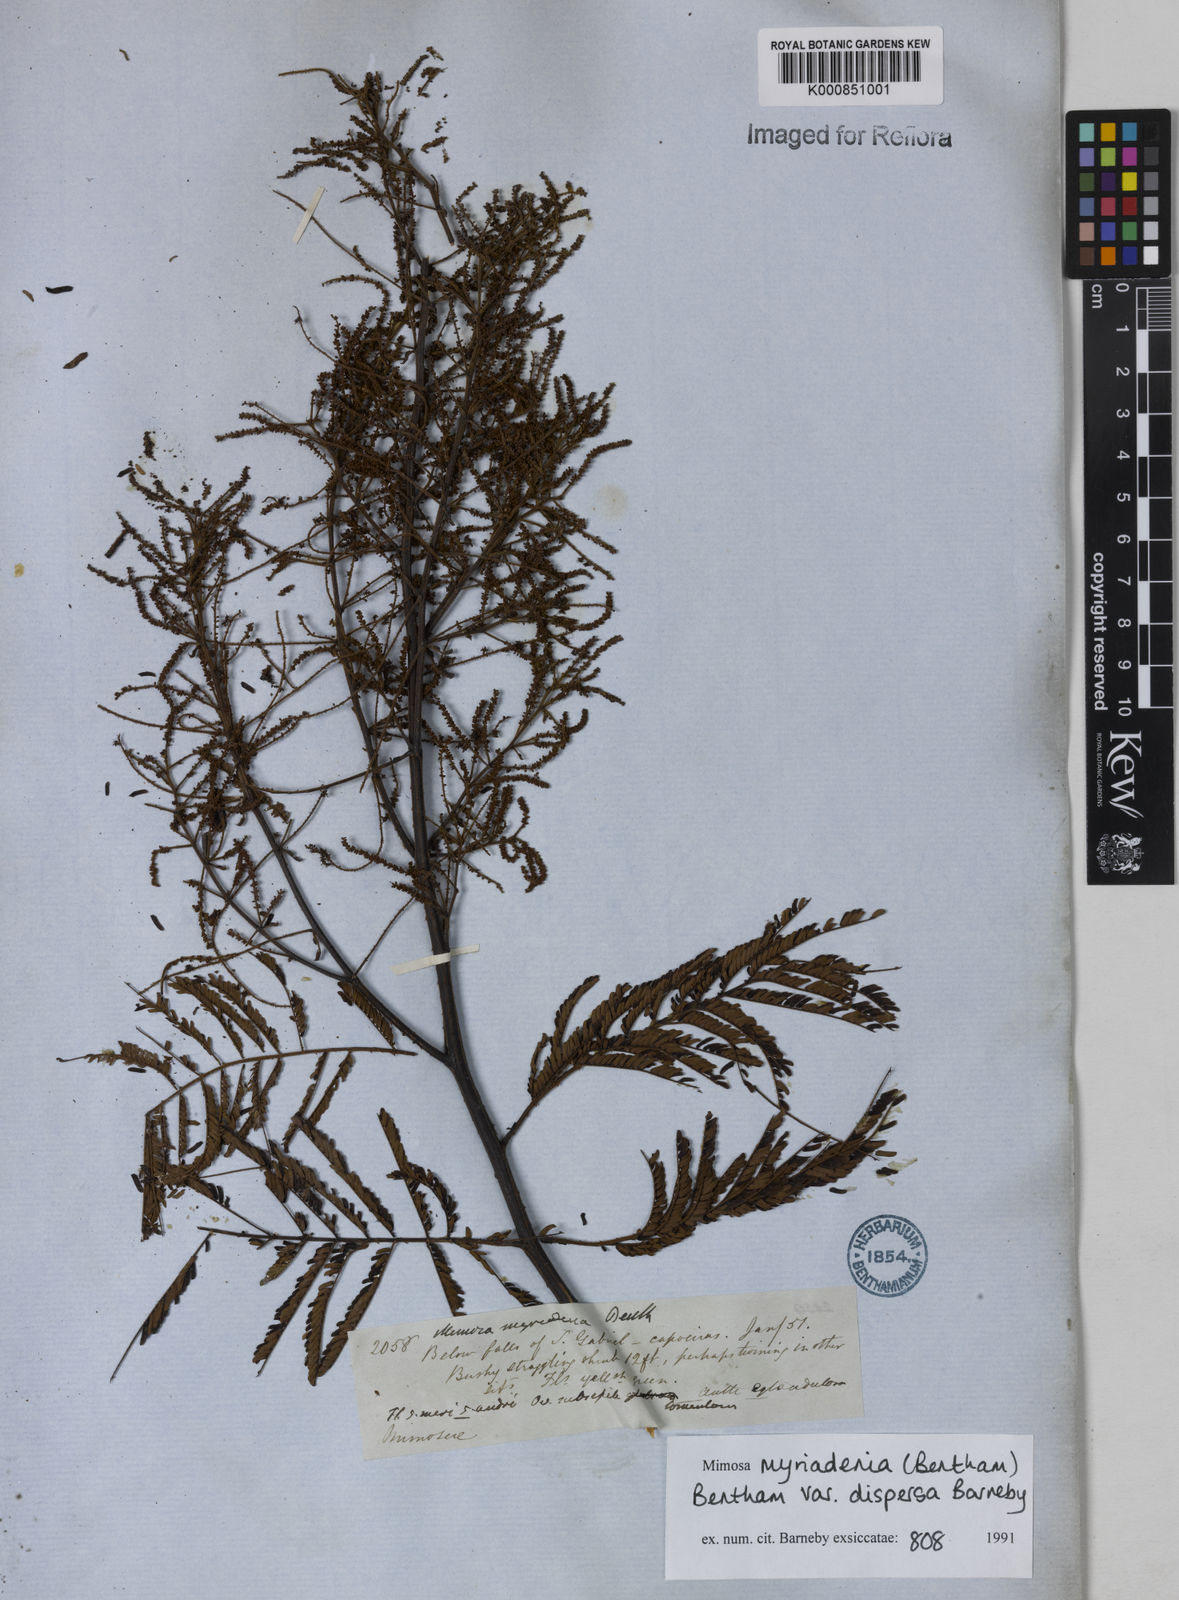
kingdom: Plantae
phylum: Tracheophyta
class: Magnoliopsida
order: Fabales
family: Fabaceae
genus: Mimosa
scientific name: Mimosa myriadenia
